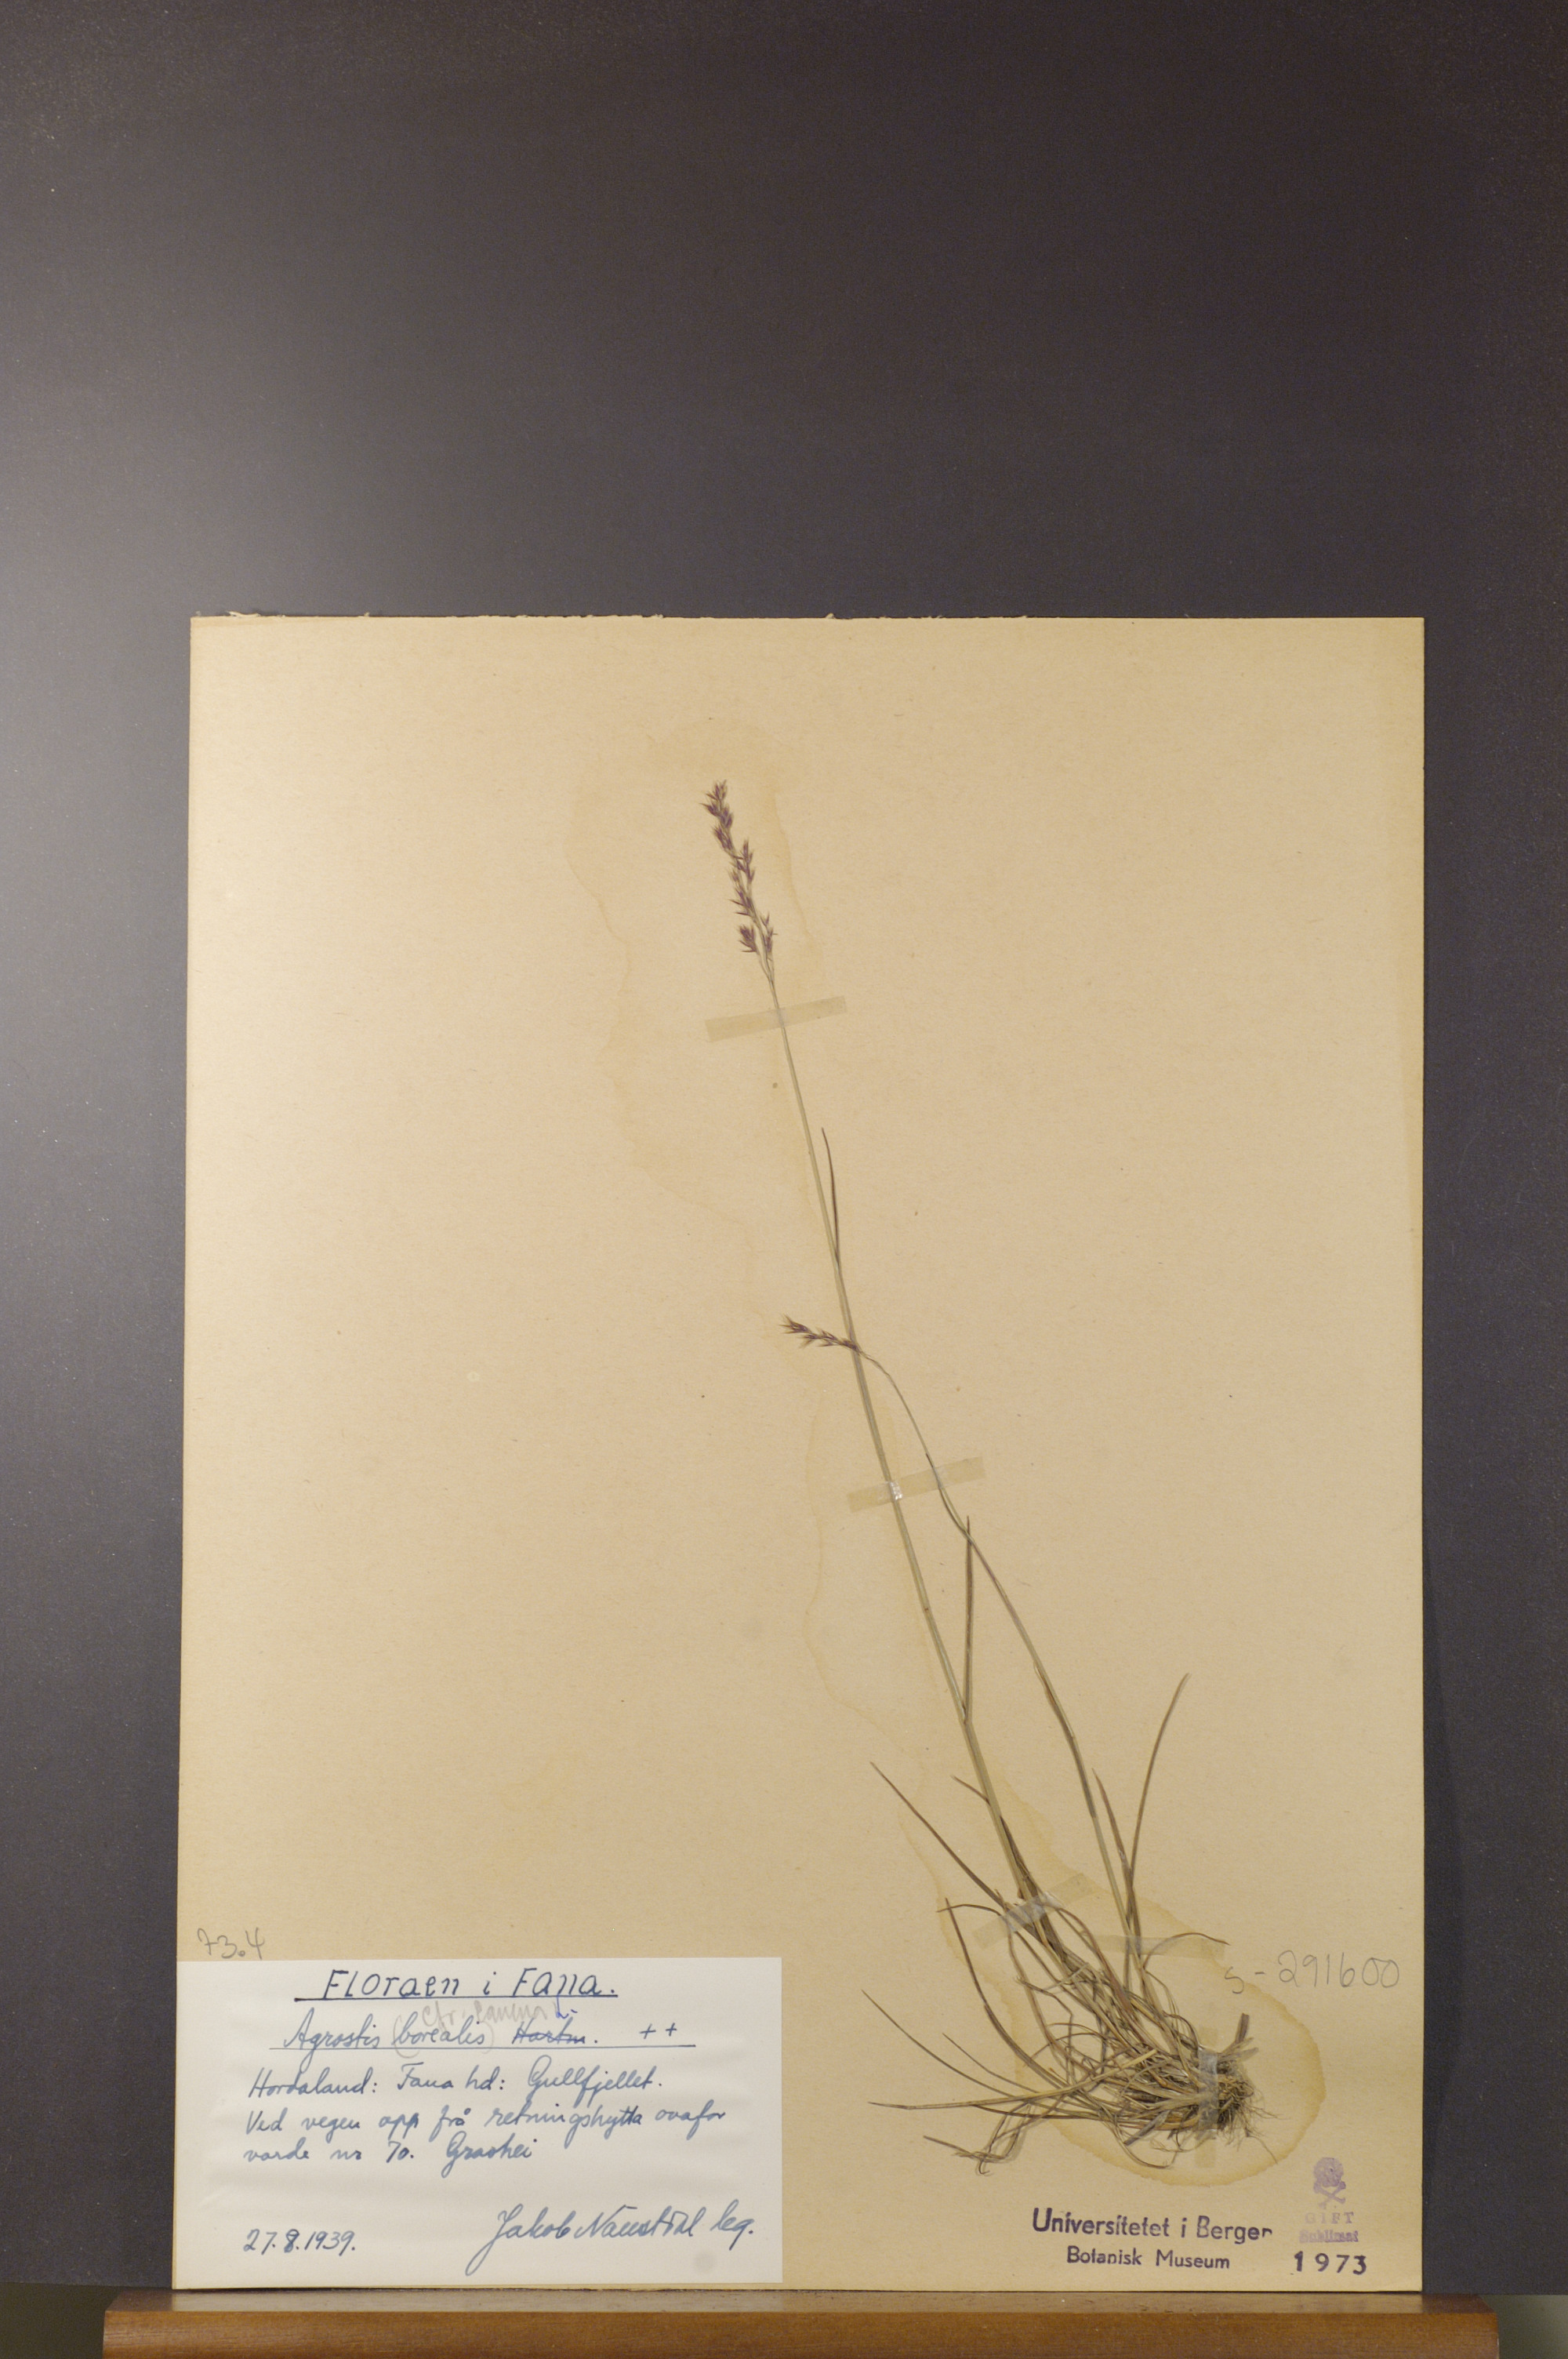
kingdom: Plantae
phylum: Tracheophyta
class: Liliopsida
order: Poales
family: Poaceae
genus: Agrostis
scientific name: Agrostis canina
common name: Velvet bent
